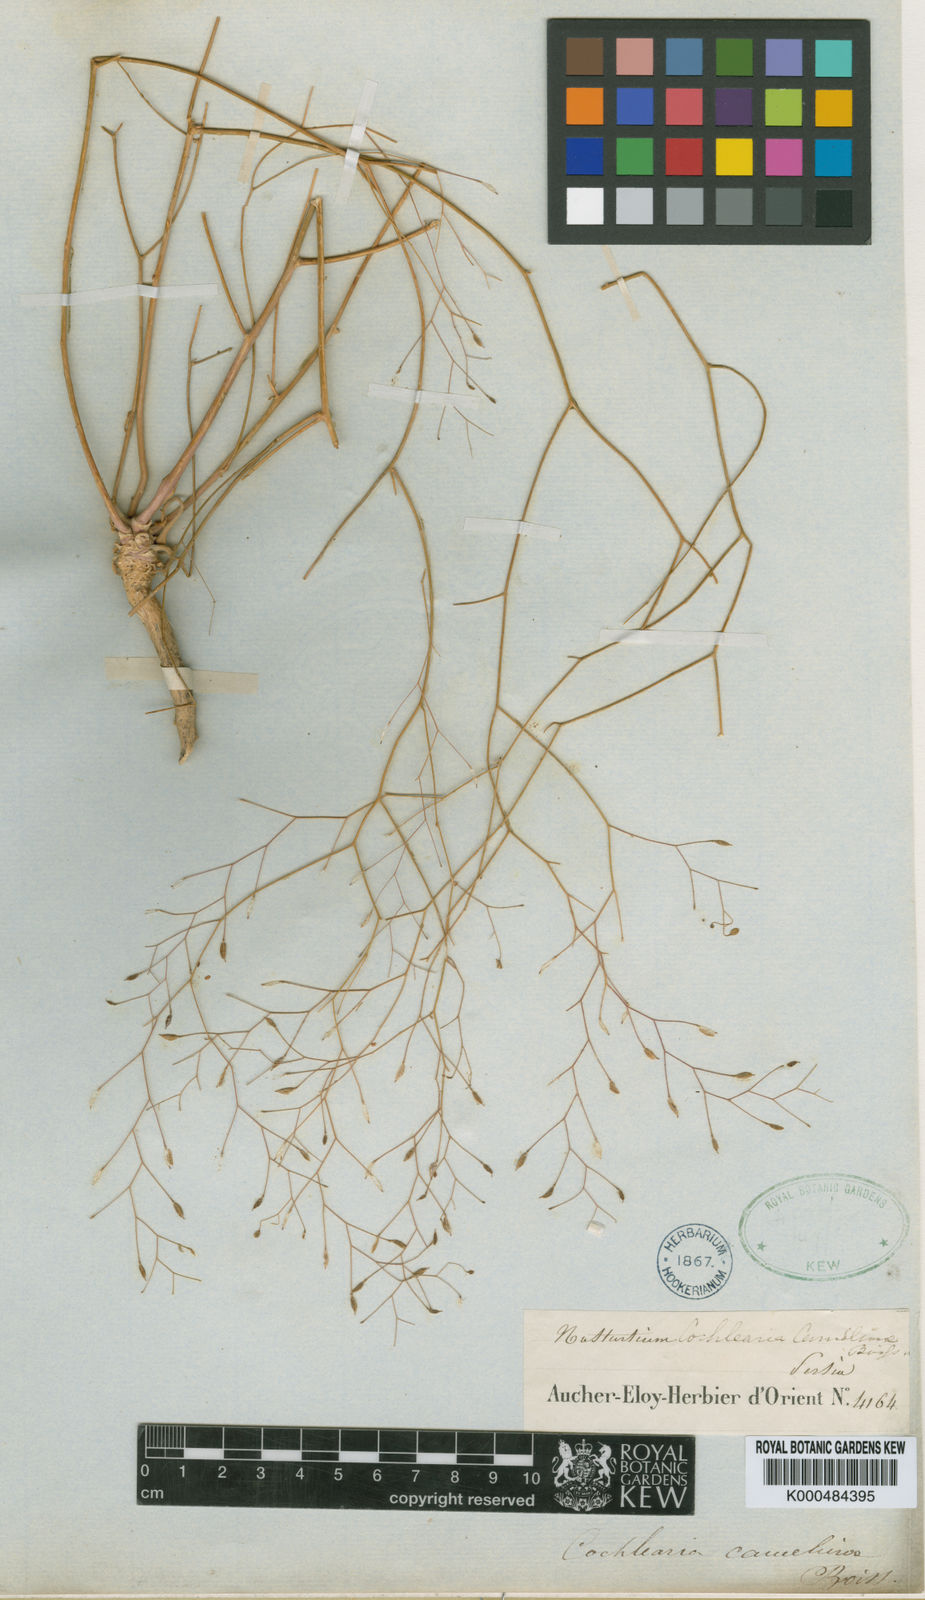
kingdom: Plantae
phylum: Tracheophyta
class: Magnoliopsida
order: Brassicales
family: Brassicaceae
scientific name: Brassicaceae
